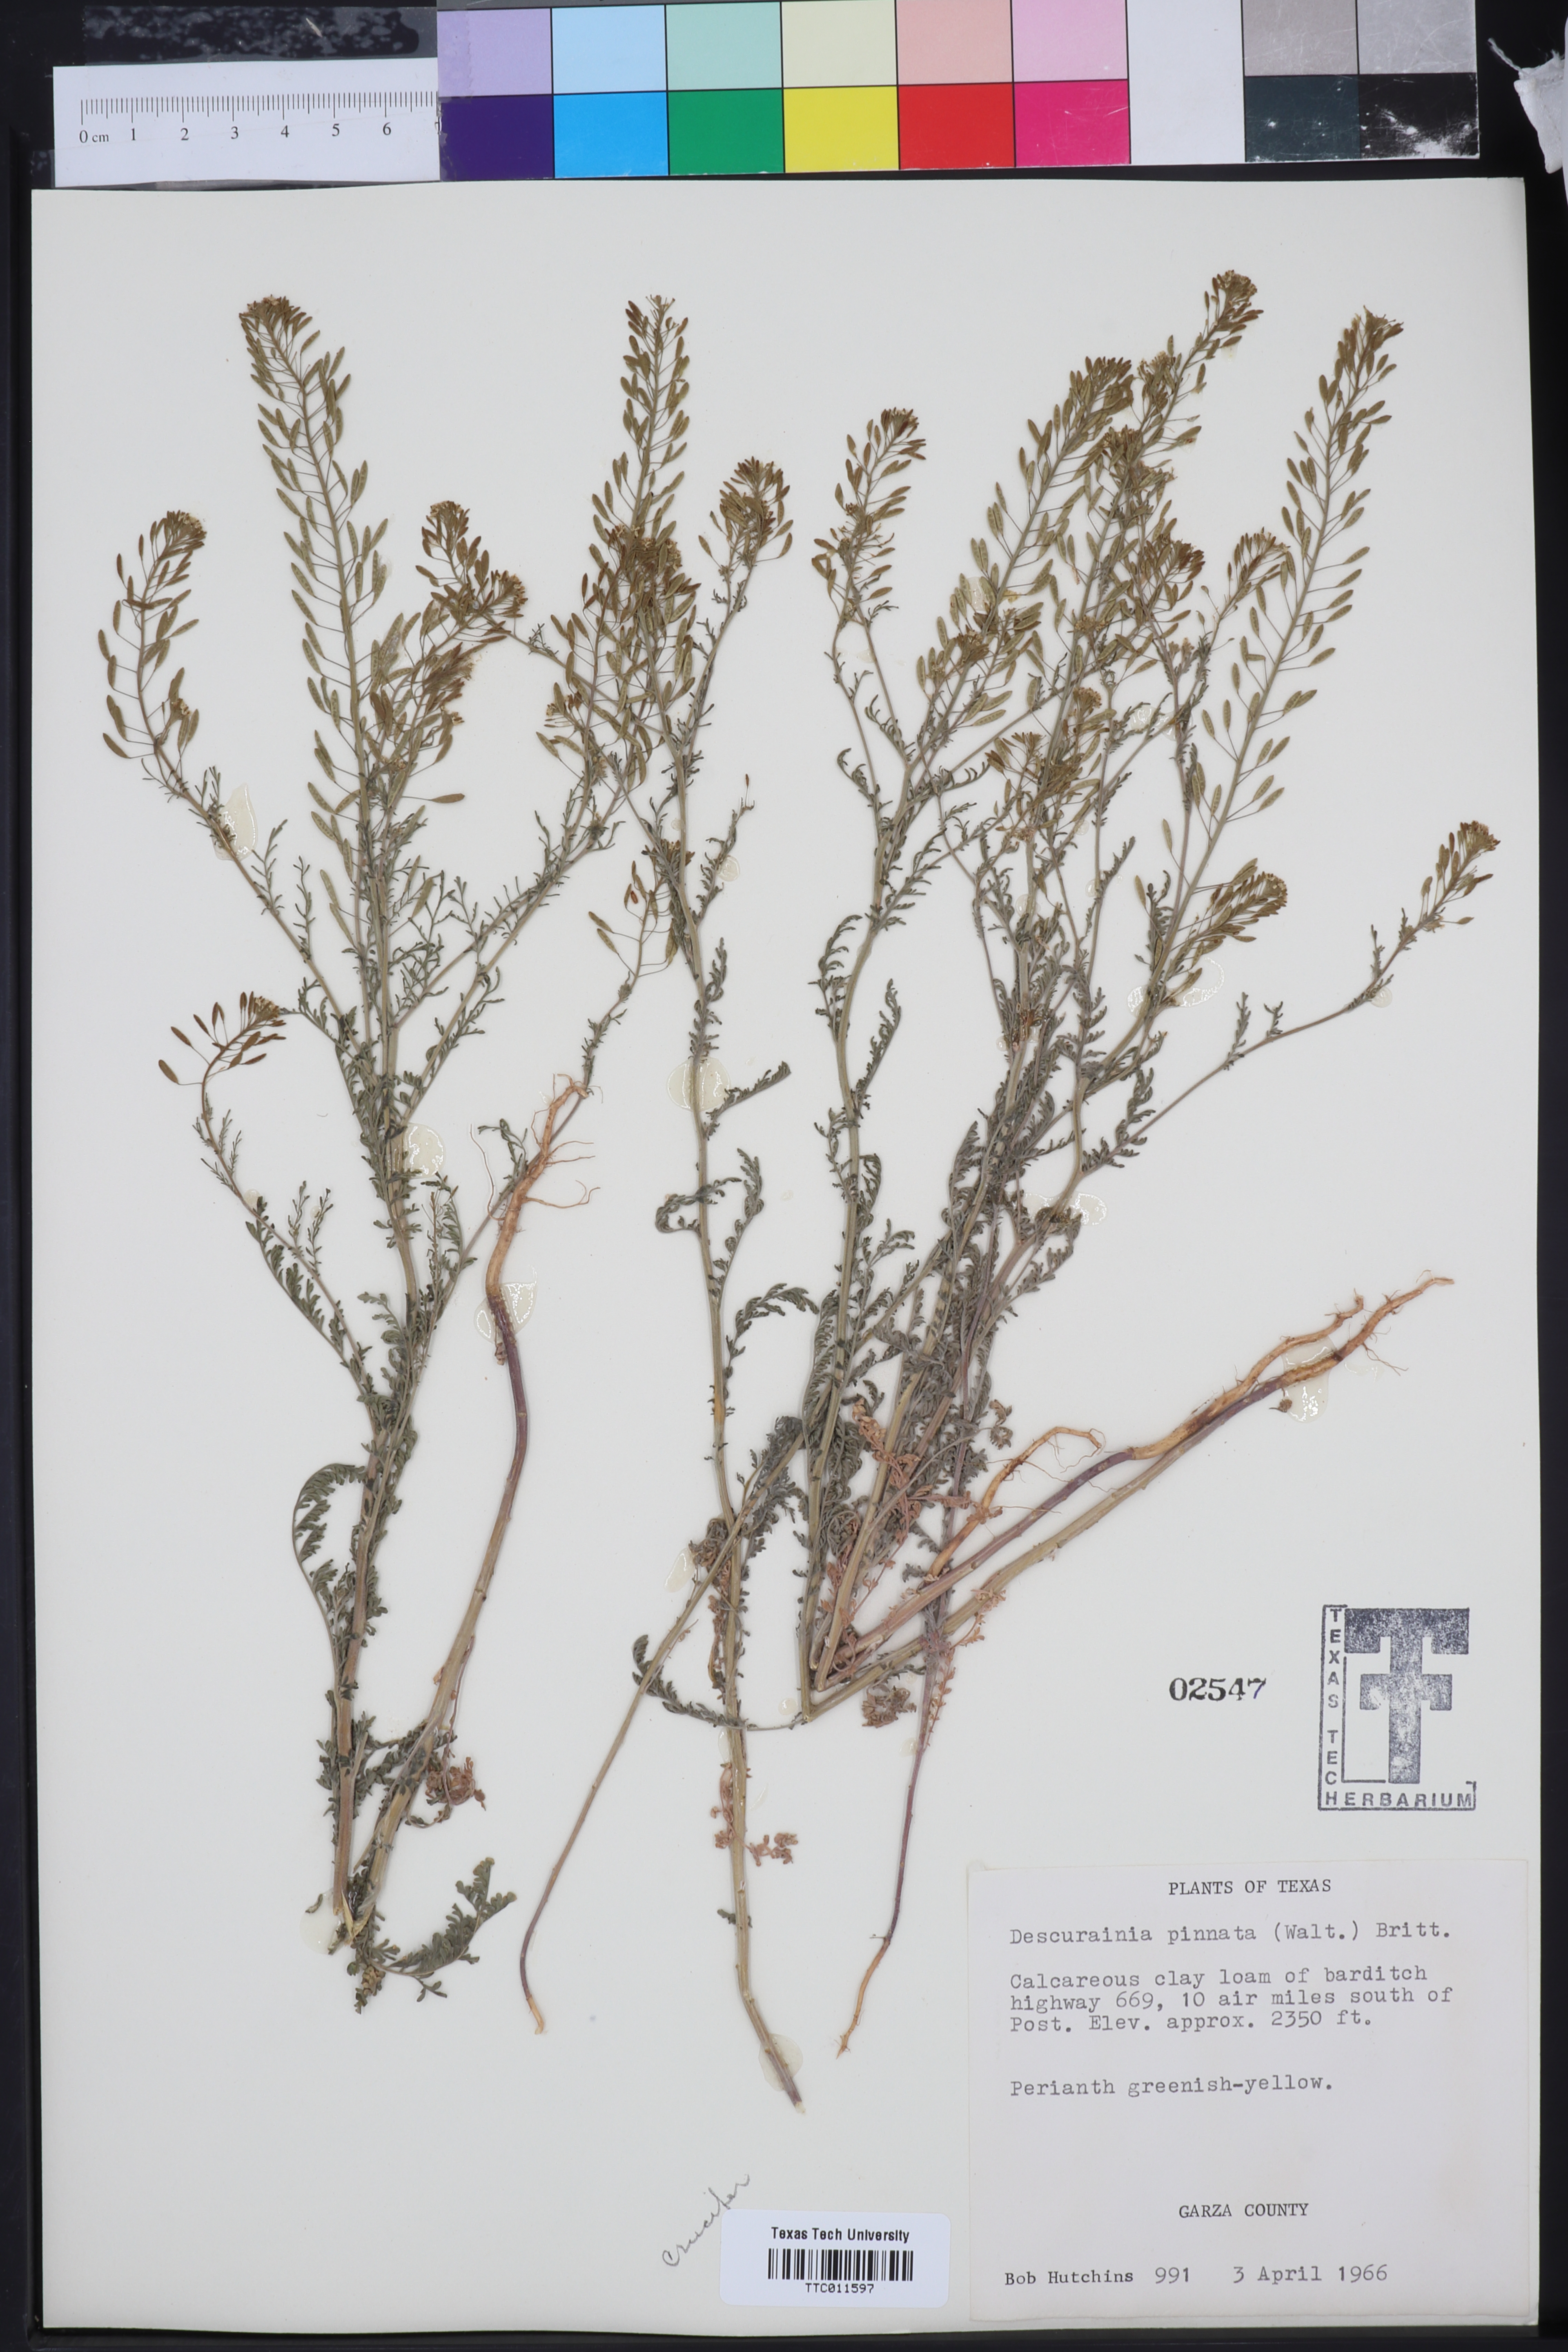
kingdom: Plantae
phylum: Tracheophyta
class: Magnoliopsida
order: Brassicales
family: Brassicaceae
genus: Descurainia
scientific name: Descurainia pinnata
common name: Western tansy mustard
